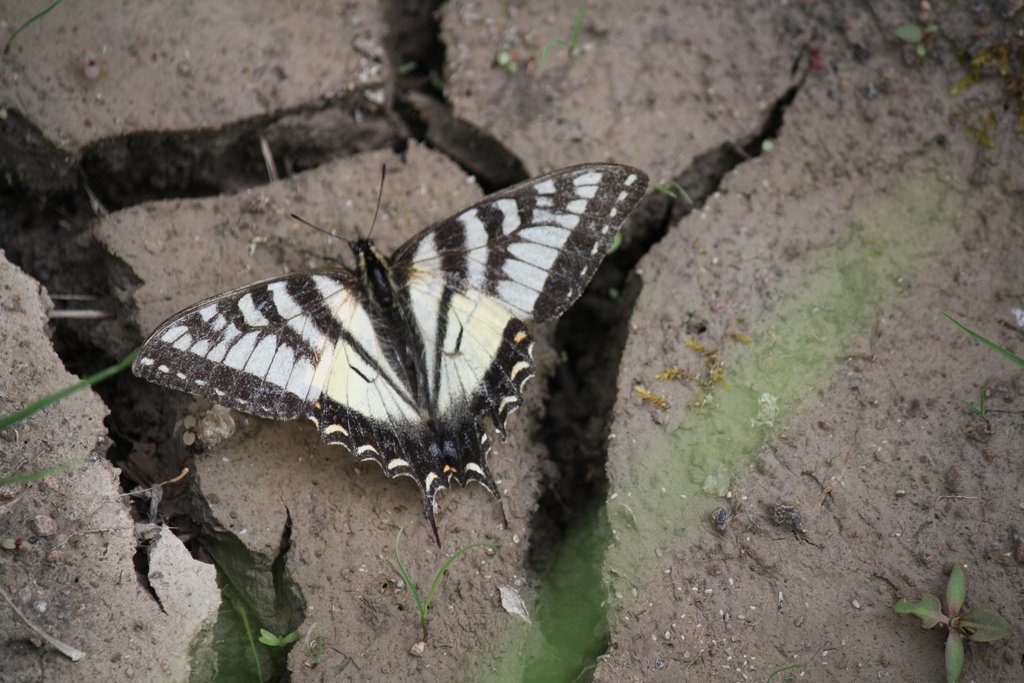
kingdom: Animalia
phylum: Arthropoda
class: Insecta
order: Lepidoptera
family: Papilionidae
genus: Pterourus
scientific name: Pterourus canadensis
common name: Canadian Tiger Swallowtail
